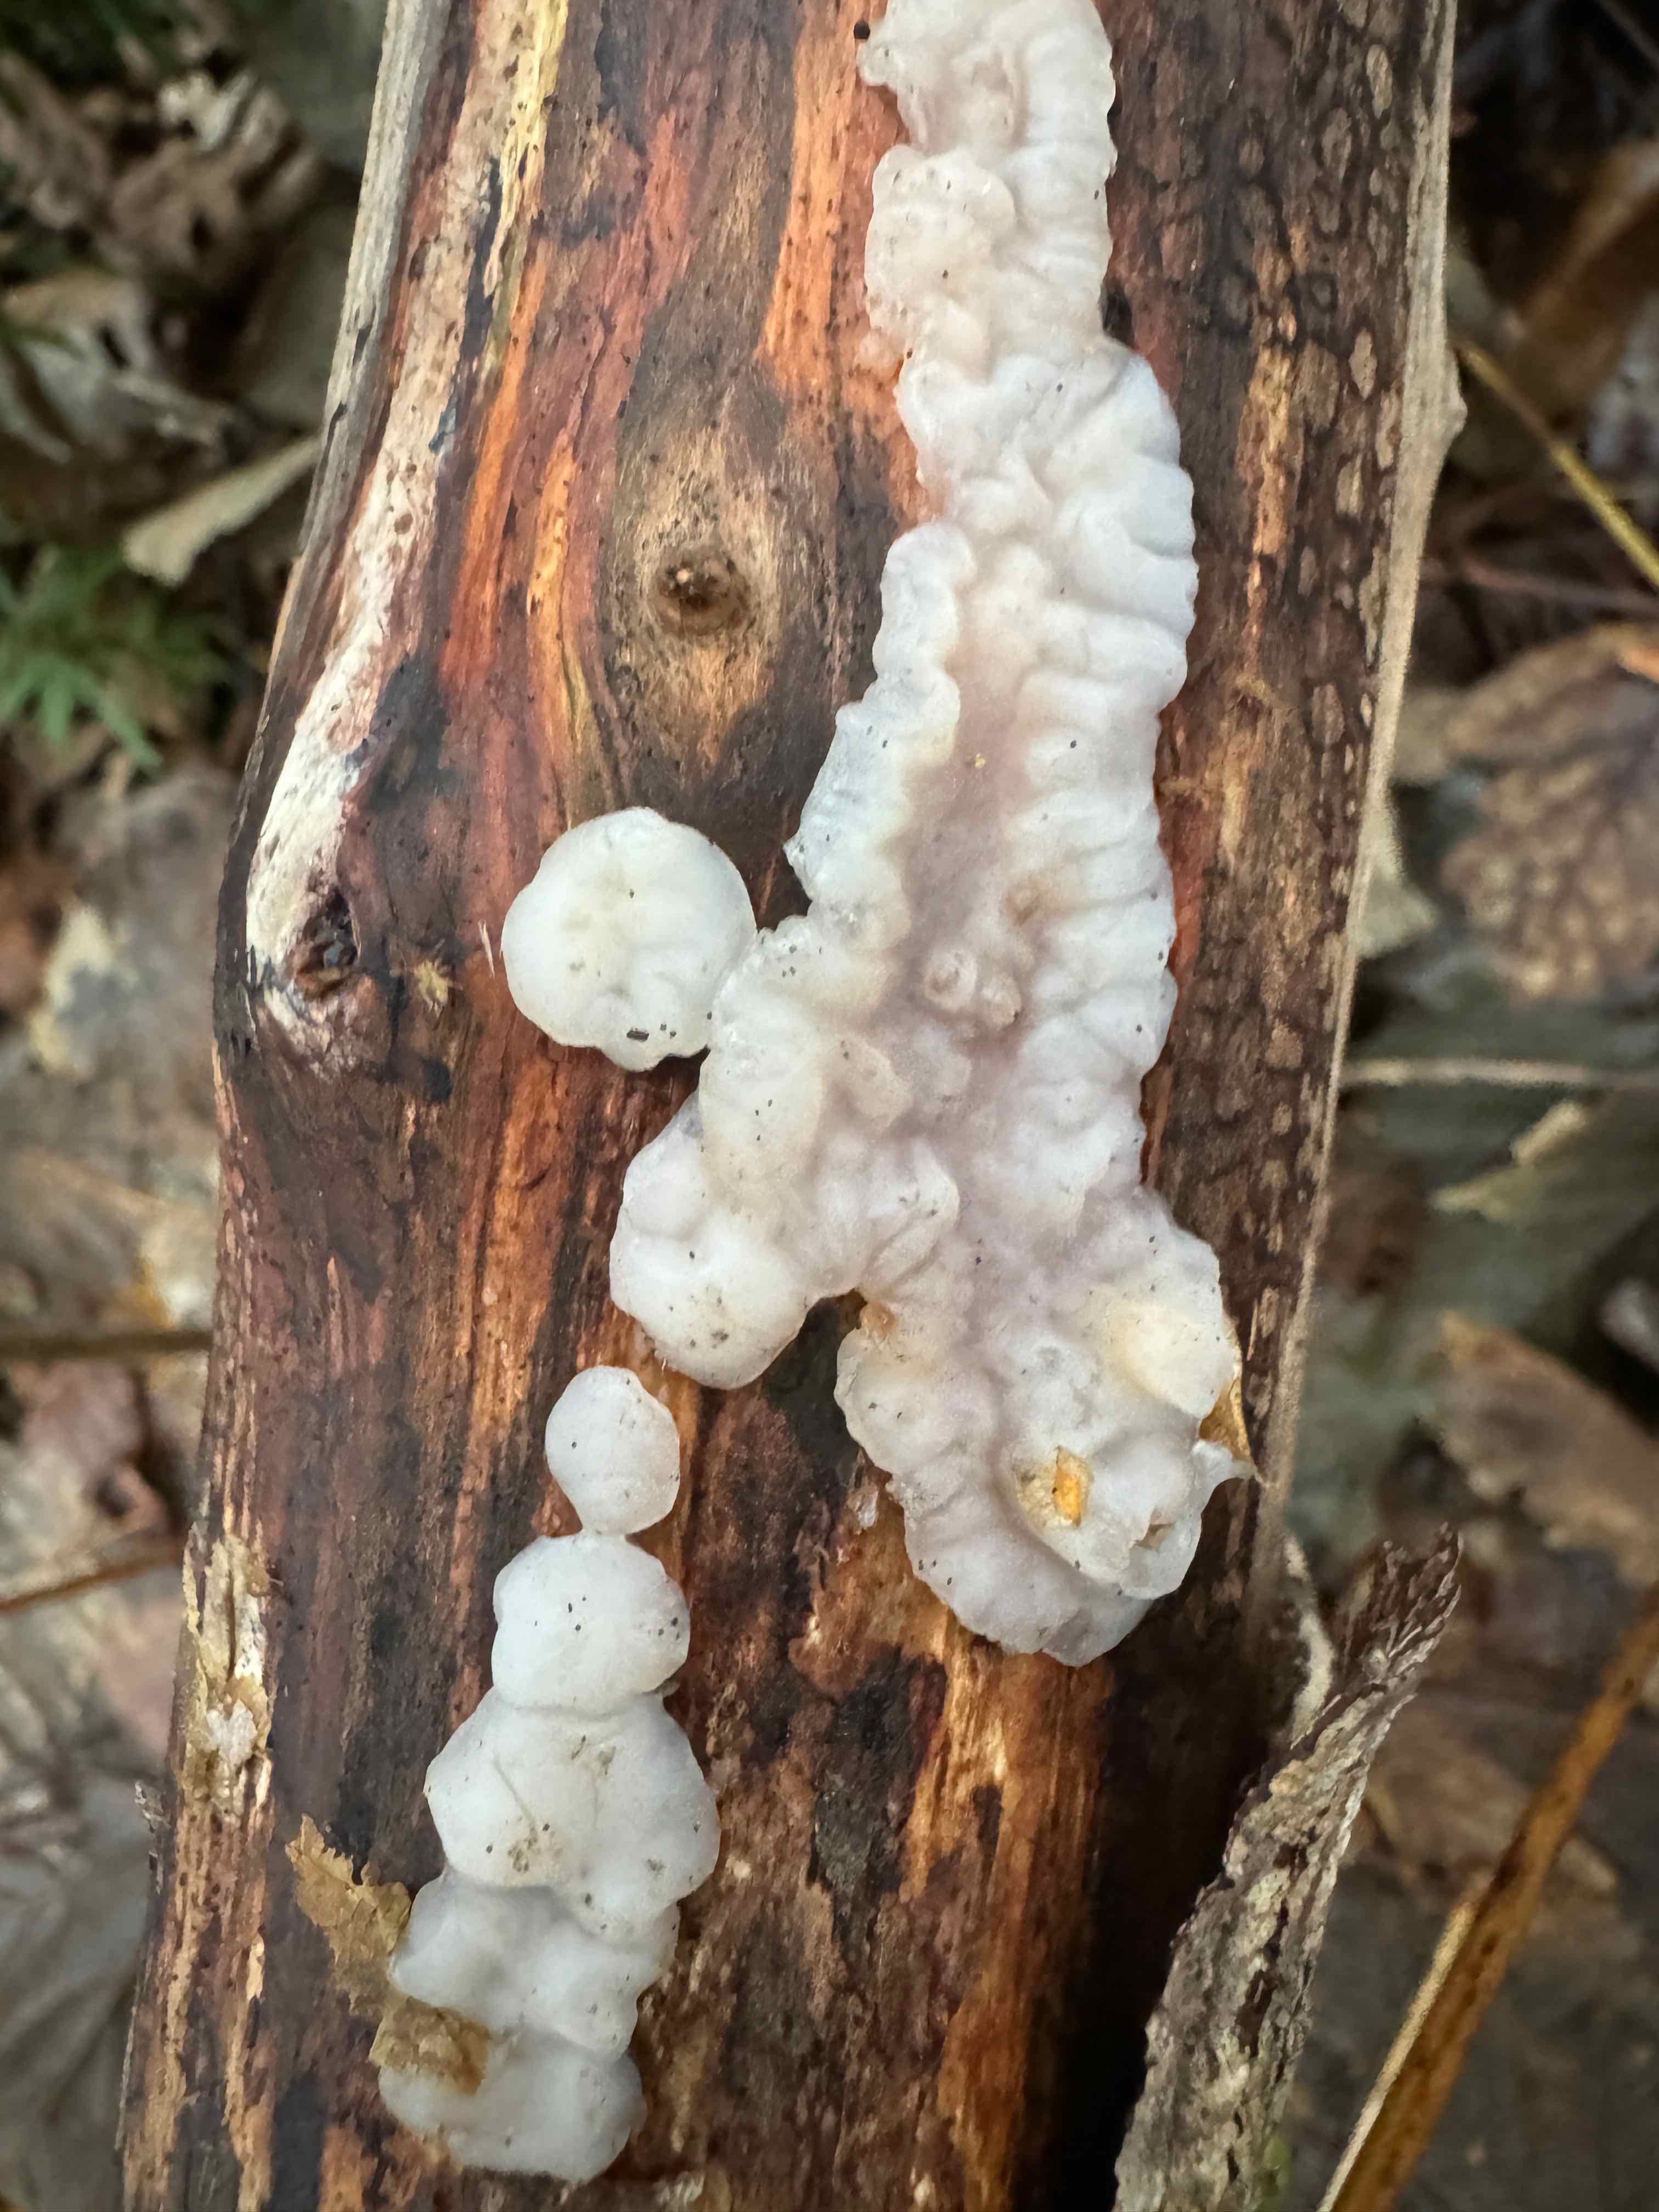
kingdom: Fungi
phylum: Basidiomycota
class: Agaricomycetes
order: Auriculariales
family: Auriculariaceae
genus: Exidia
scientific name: Exidia thuretiana
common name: hvidlig bævretop
